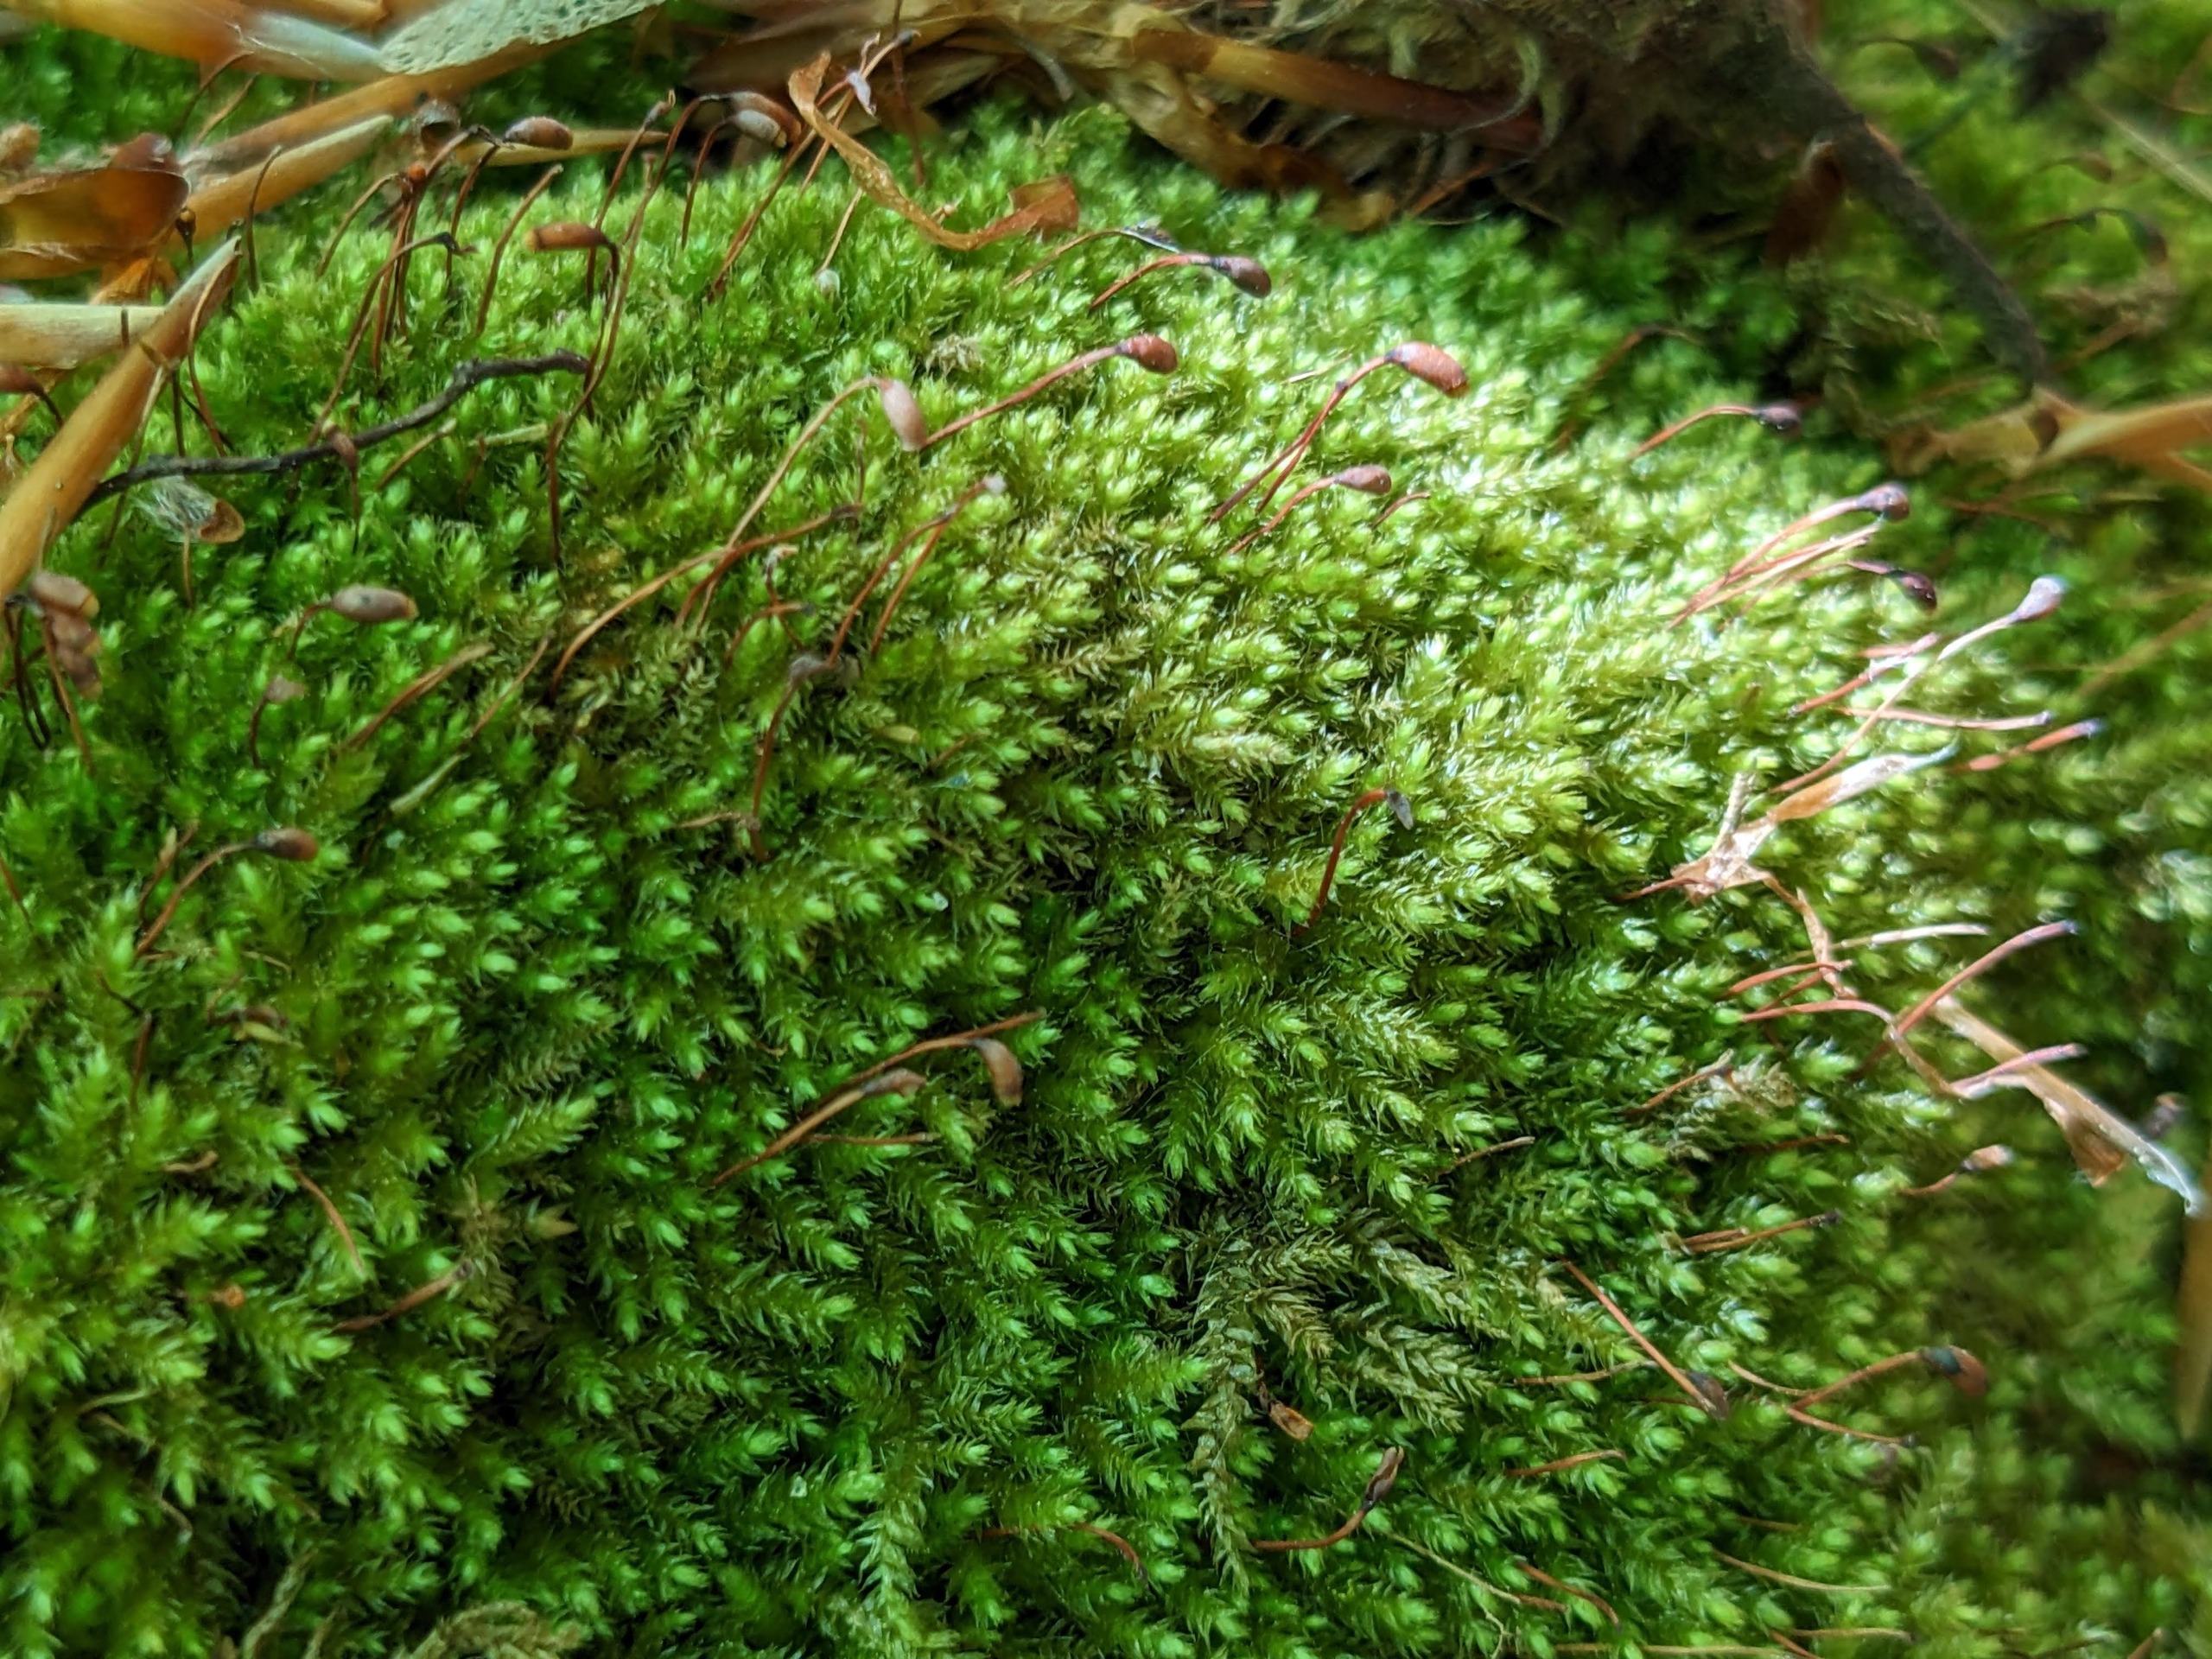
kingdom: Plantae
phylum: Bryophyta
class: Bryopsida
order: Hypnales
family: Brachytheciaceae
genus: Oxyrrhynchium
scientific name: Oxyrrhynchium schleicheri
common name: Vredet vortetand
